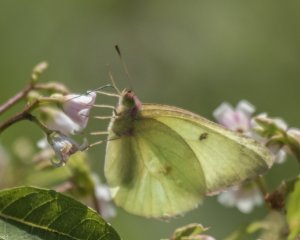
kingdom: Animalia
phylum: Arthropoda
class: Insecta
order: Lepidoptera
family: Pieridae
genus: Colias
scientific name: Colias interior
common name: Pink-edged Sulphur
